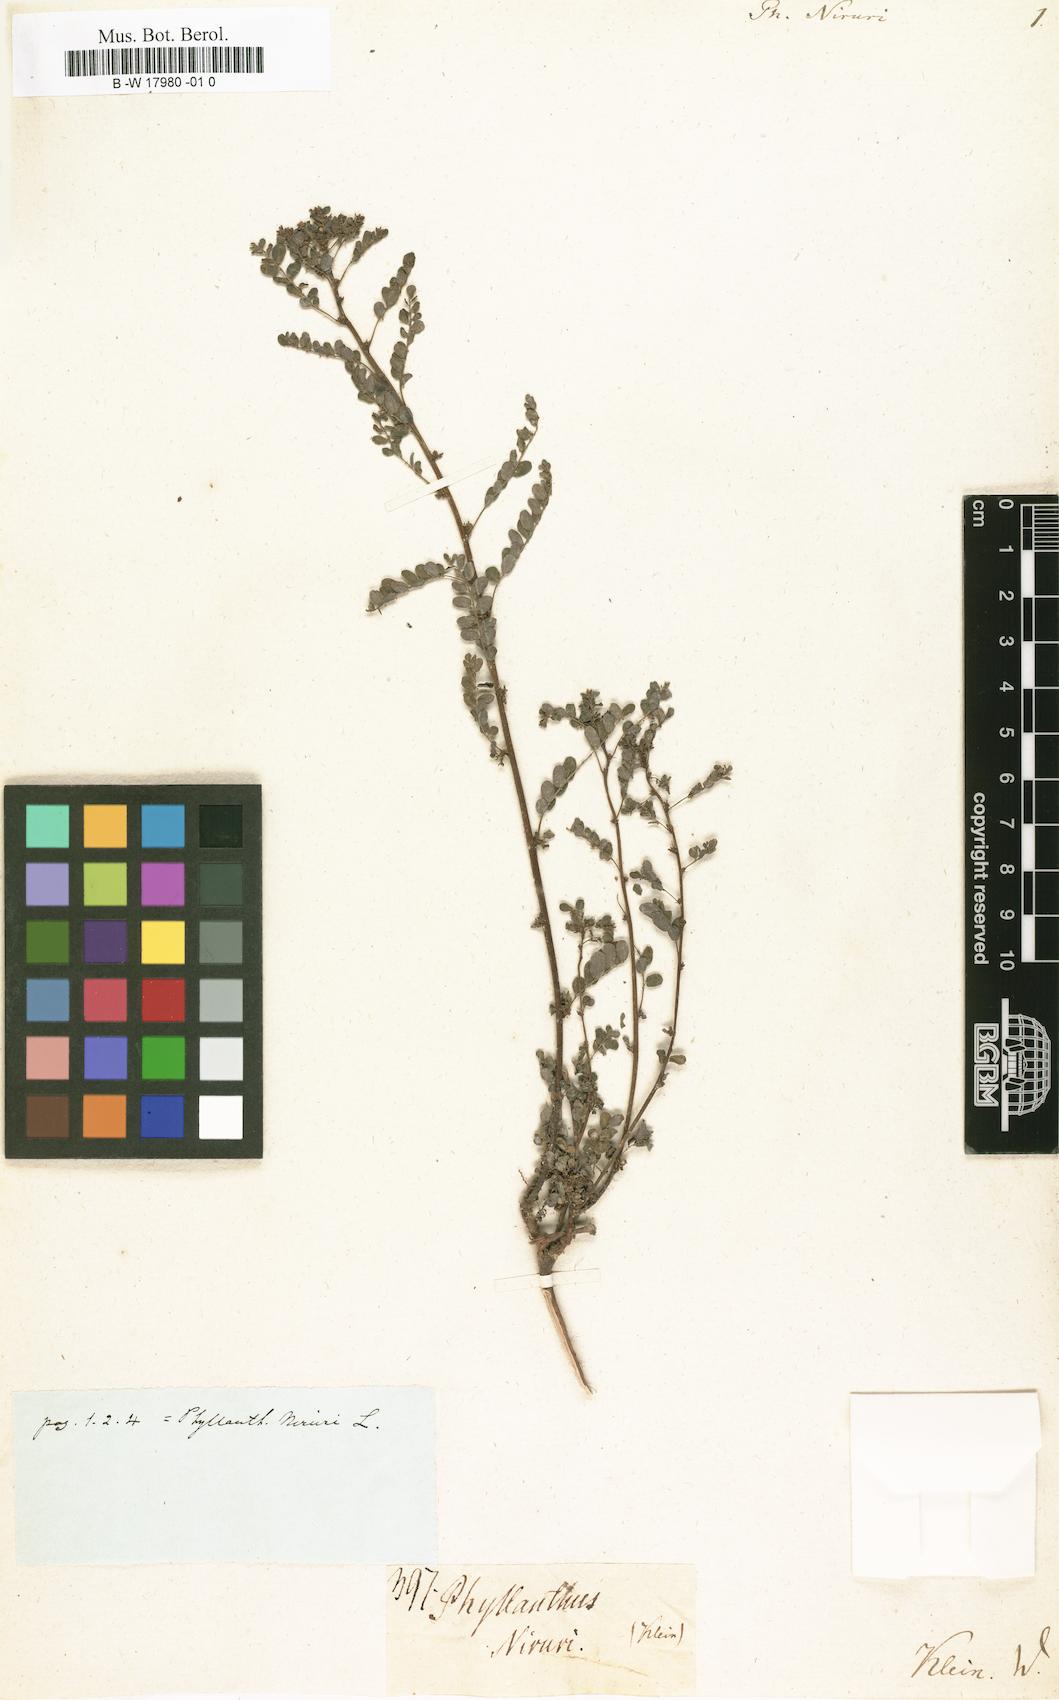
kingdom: Plantae
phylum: Tracheophyta
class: Magnoliopsida
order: Malpighiales
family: Phyllanthaceae
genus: Phyllanthus
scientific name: Phyllanthus niruri
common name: Niruri
